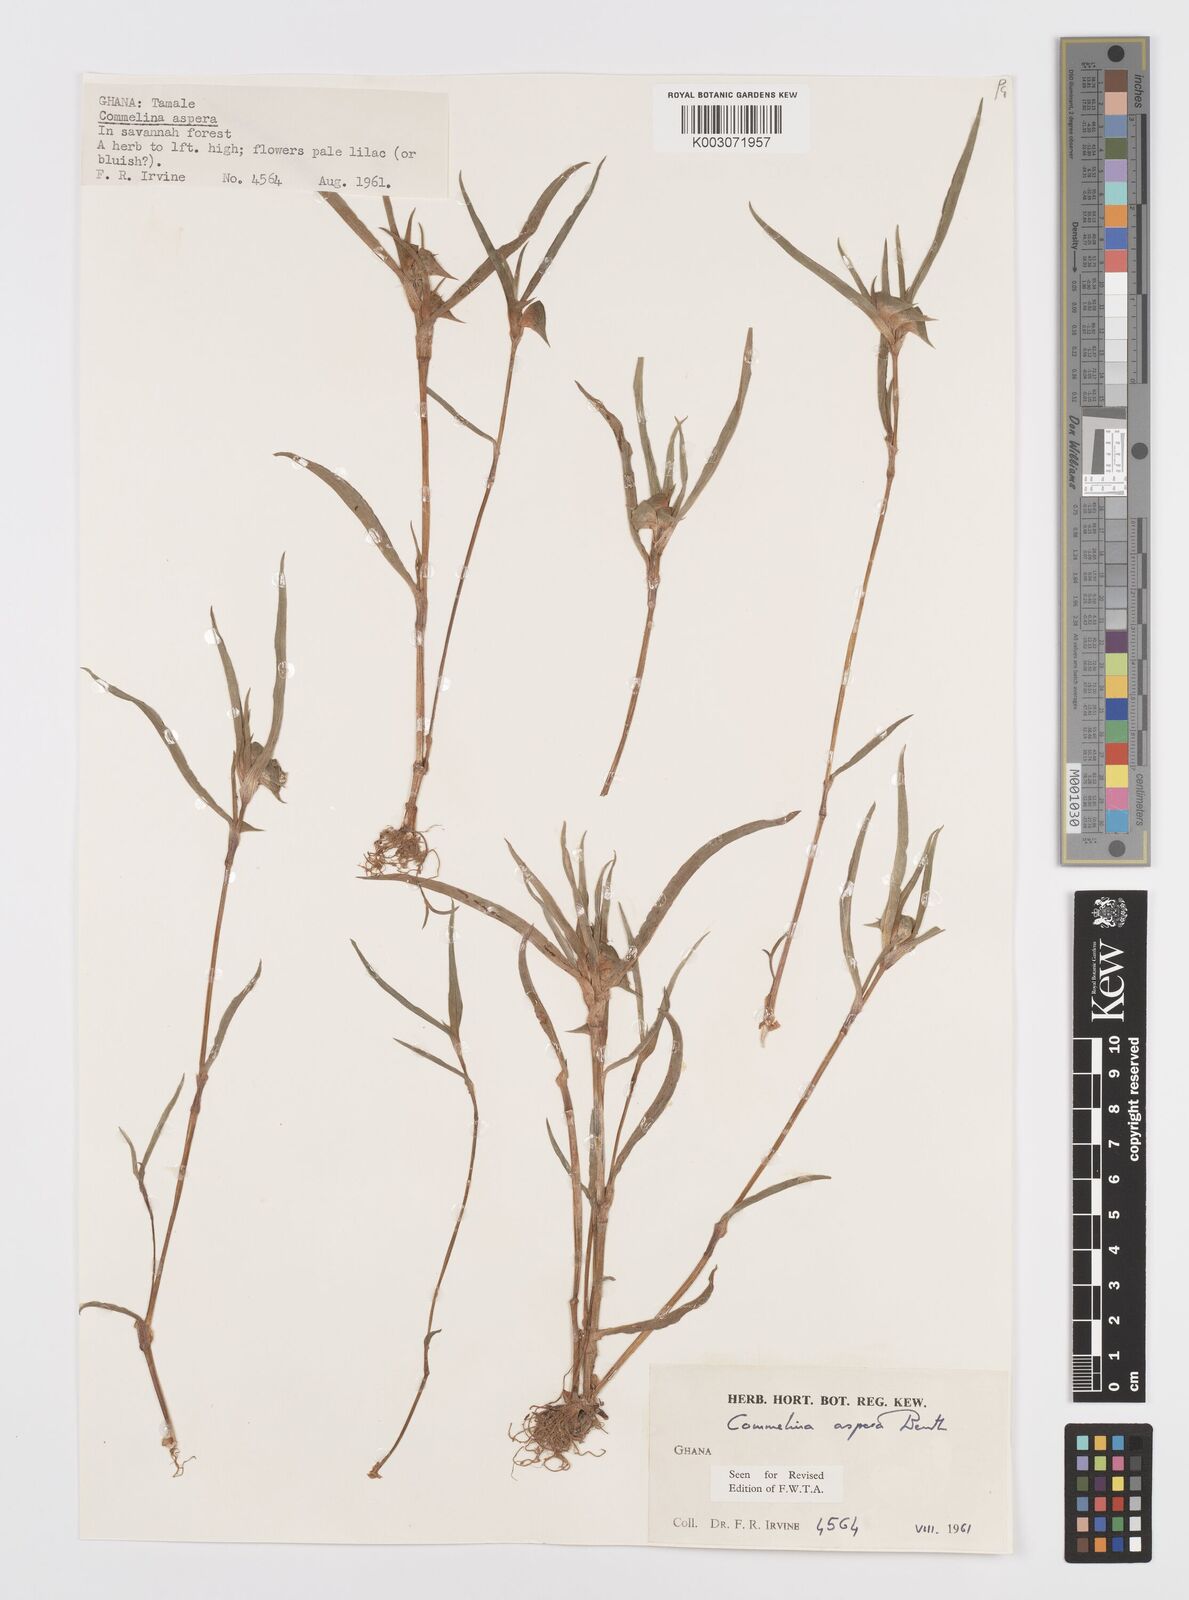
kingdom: Plantae
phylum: Tracheophyta
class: Liliopsida
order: Commelinales
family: Commelinaceae
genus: Commelina
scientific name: Commelina aspera
